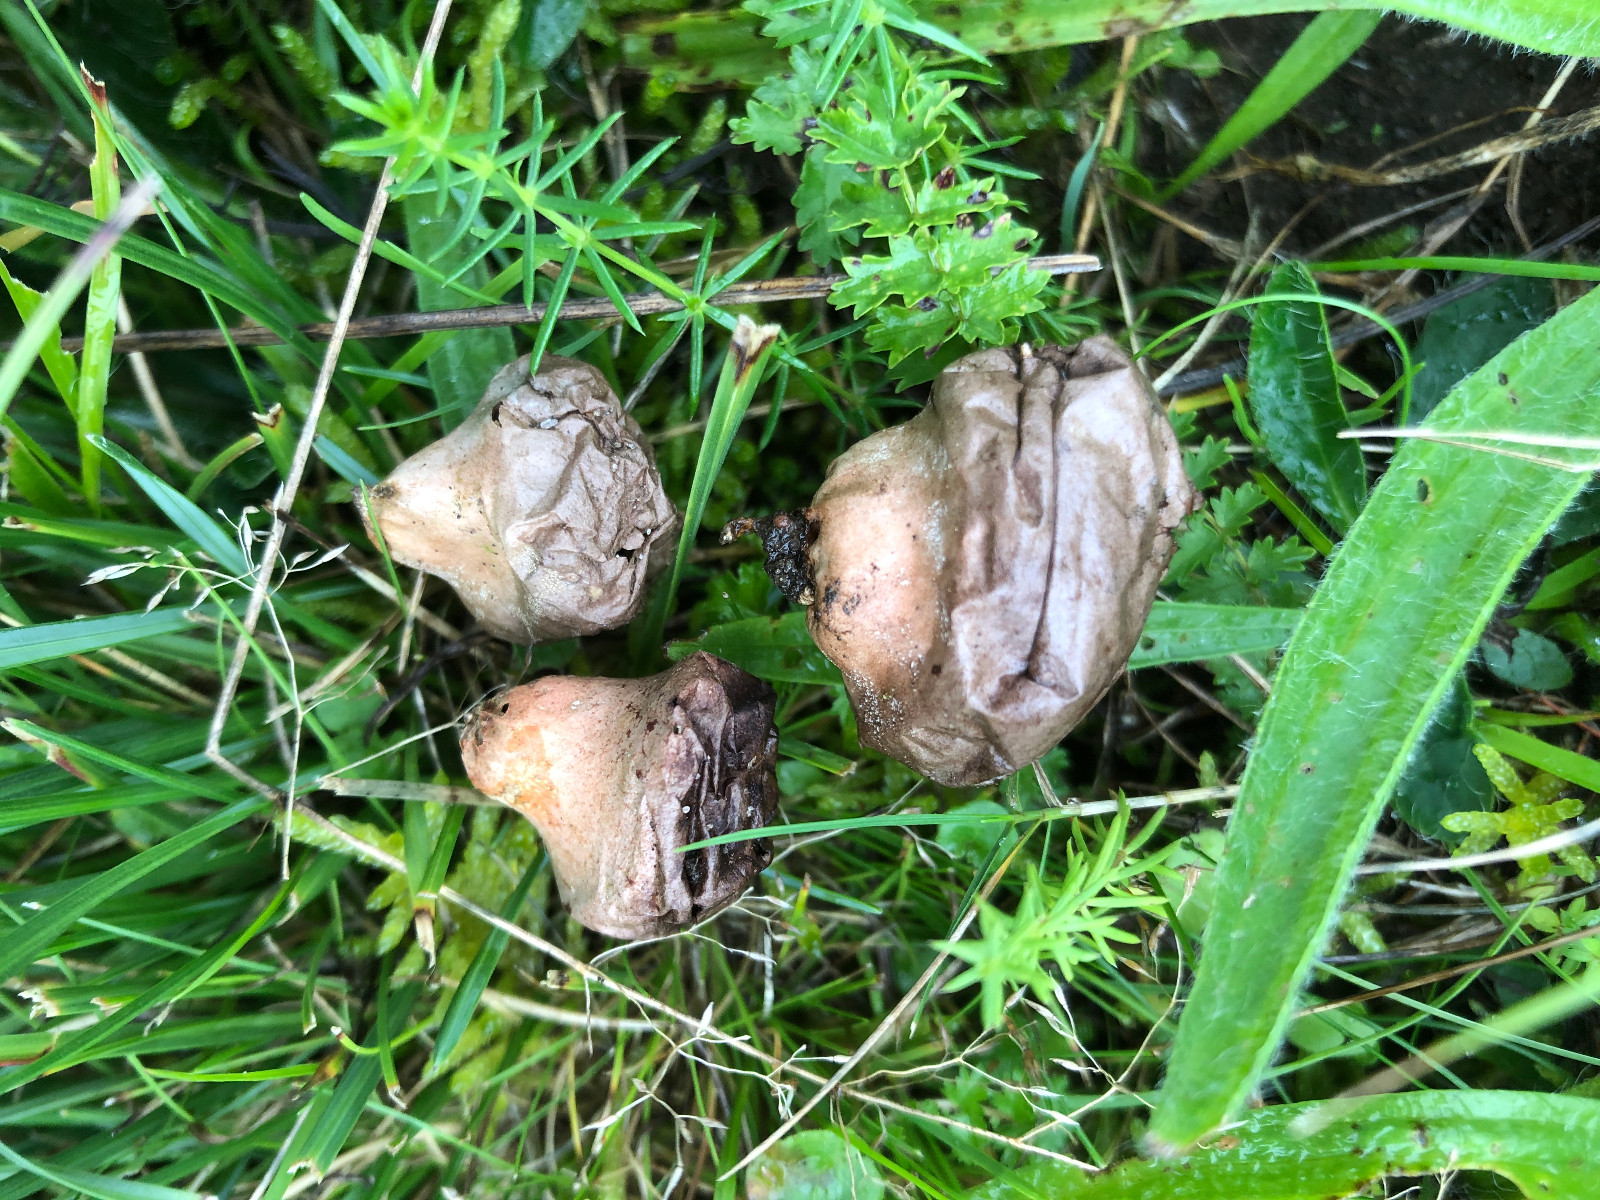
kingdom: Fungi
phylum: Basidiomycota
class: Agaricomycetes
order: Agaricales
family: Lycoperdaceae
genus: Lycoperdon
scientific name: Lycoperdon lividum
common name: mark-støvbold
